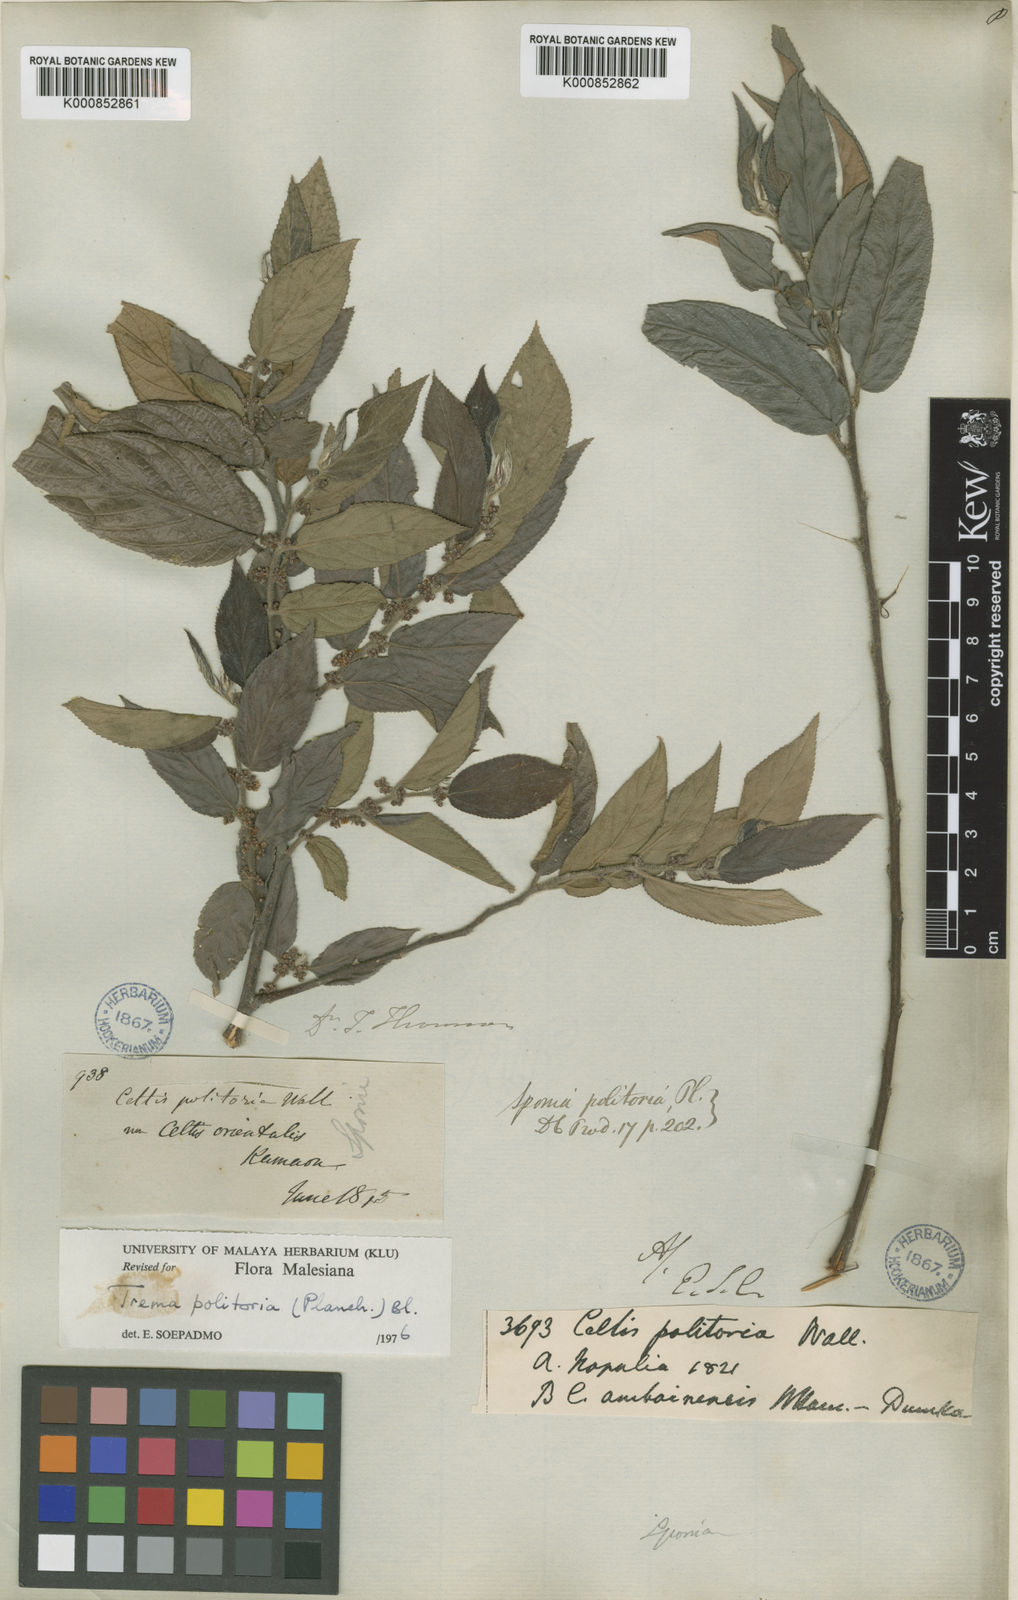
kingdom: Plantae
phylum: Tracheophyta
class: Magnoliopsida
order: Rosales
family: Cannabaceae
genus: Trema
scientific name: Trema politoria
